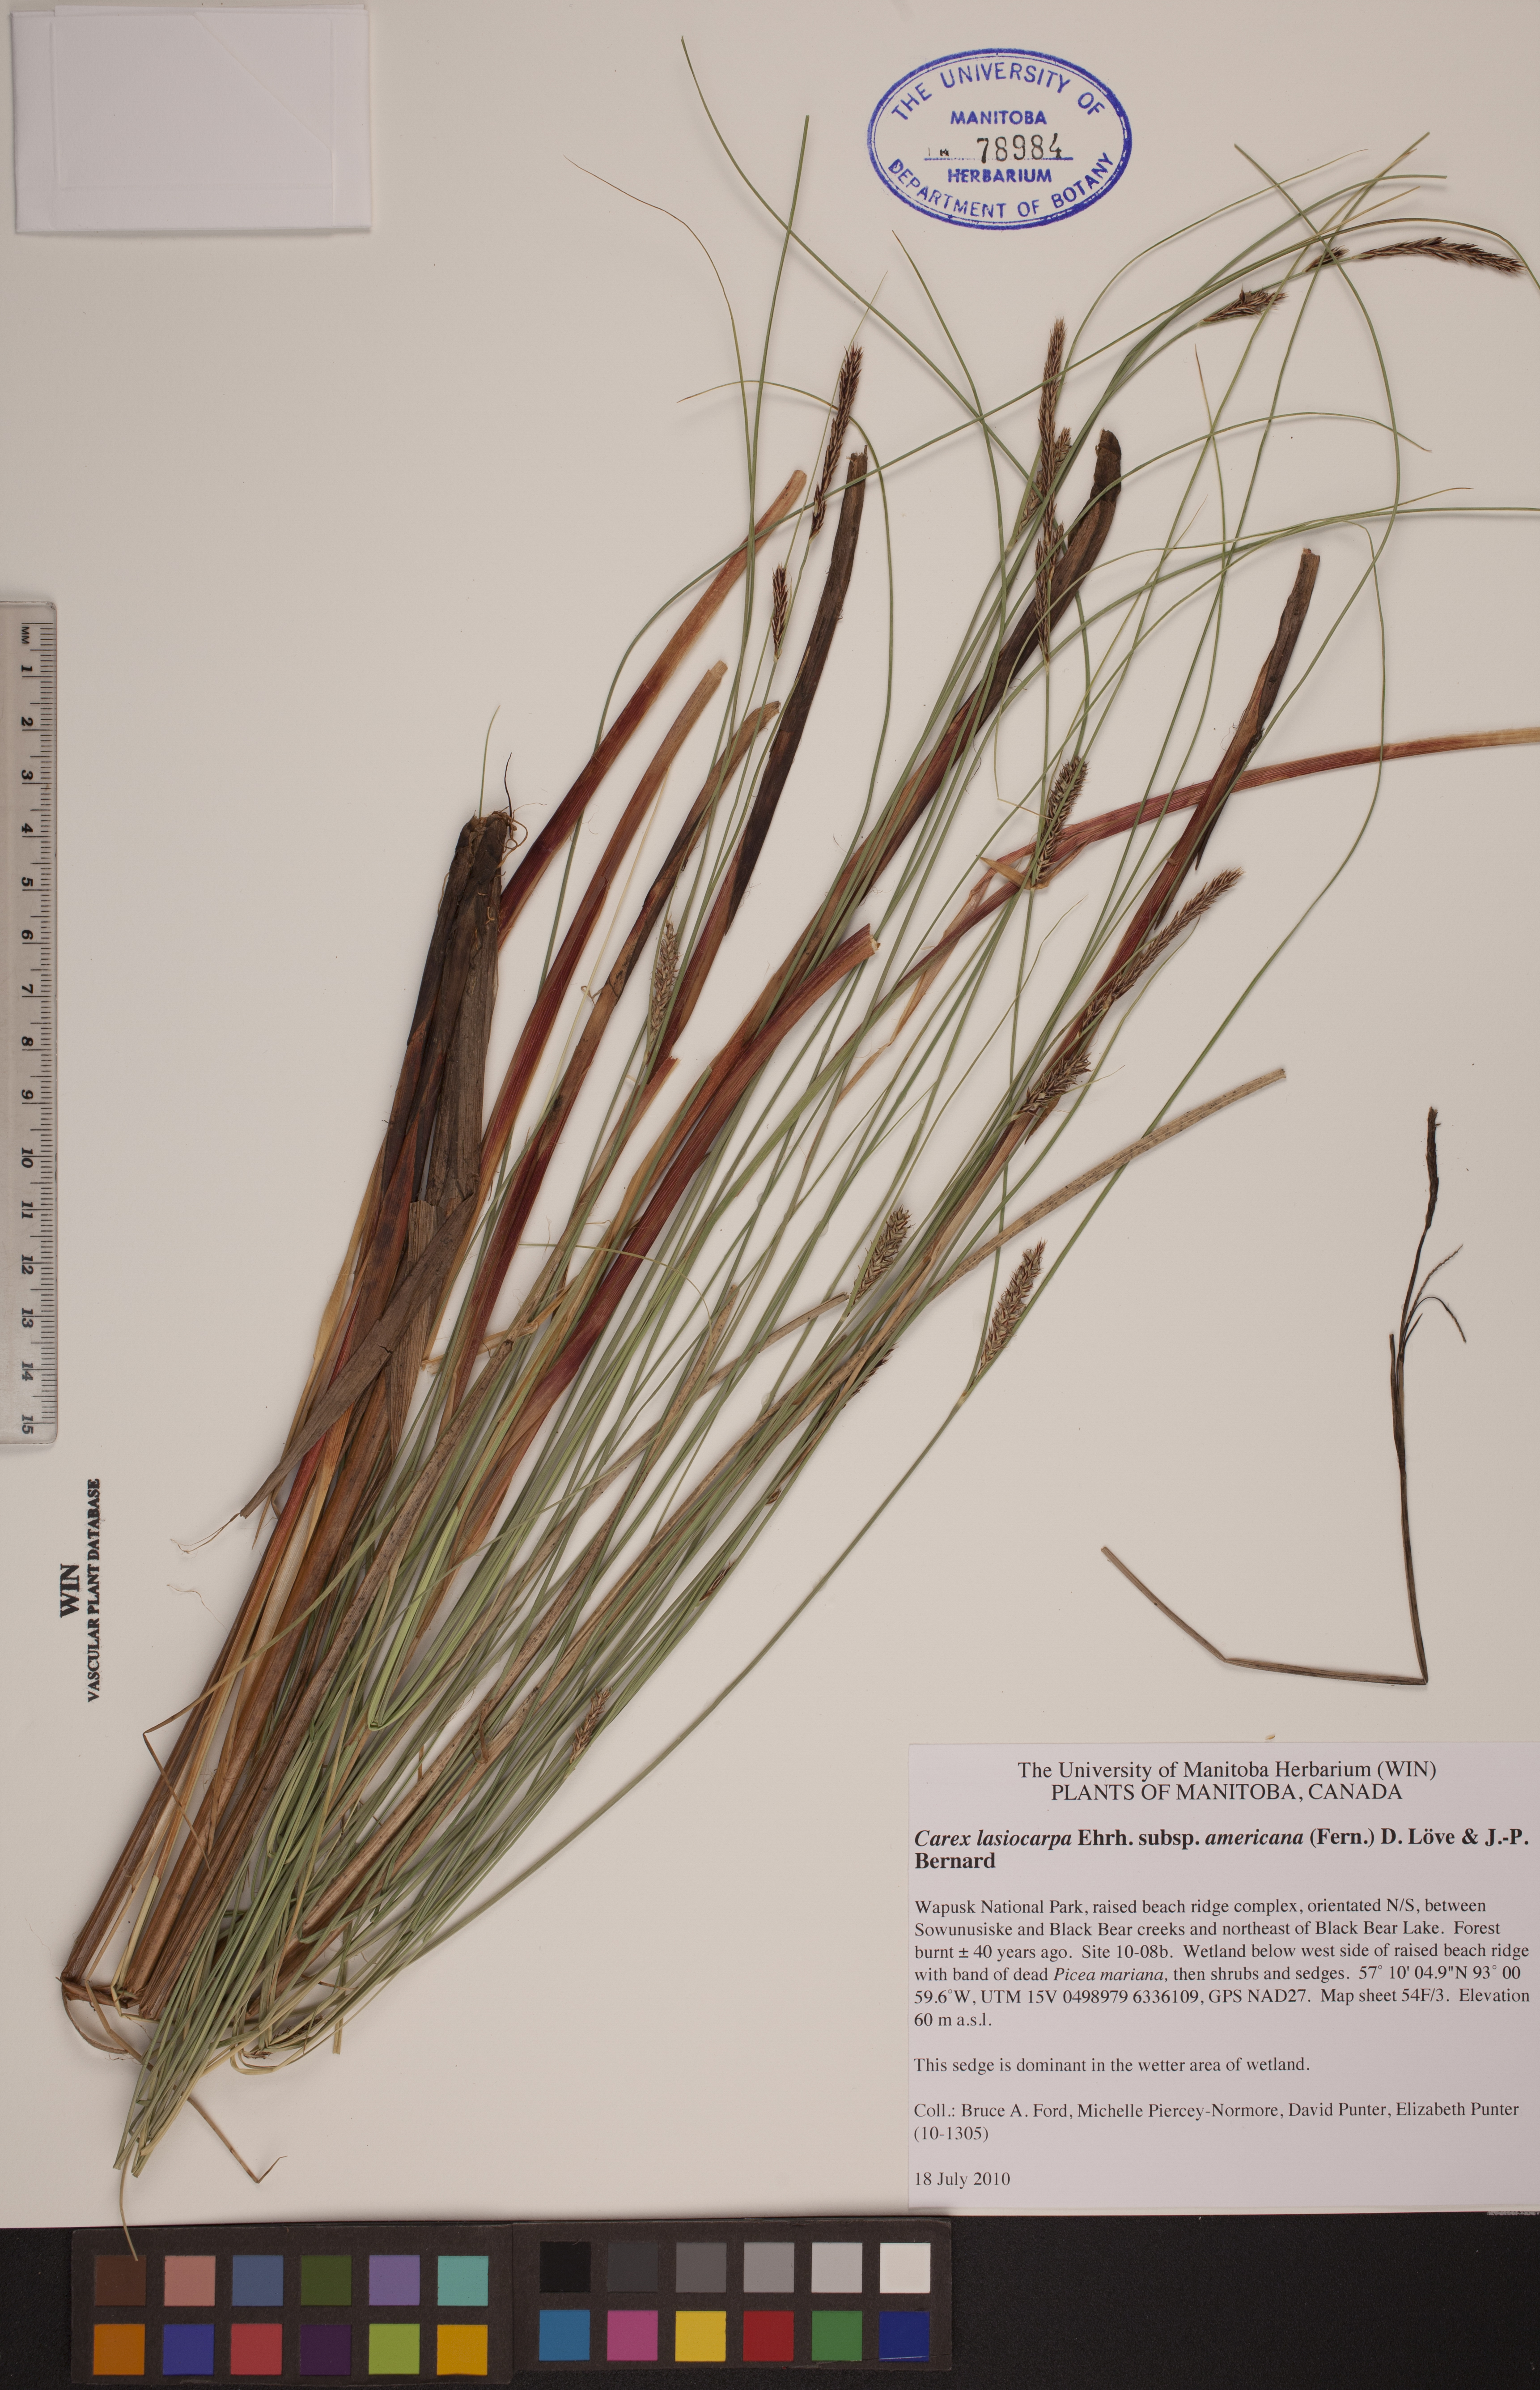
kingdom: Plantae
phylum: Tracheophyta
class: Liliopsida
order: Poales
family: Cyperaceae
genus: Carex
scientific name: Carex lasiocarpa
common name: Slender sedge
